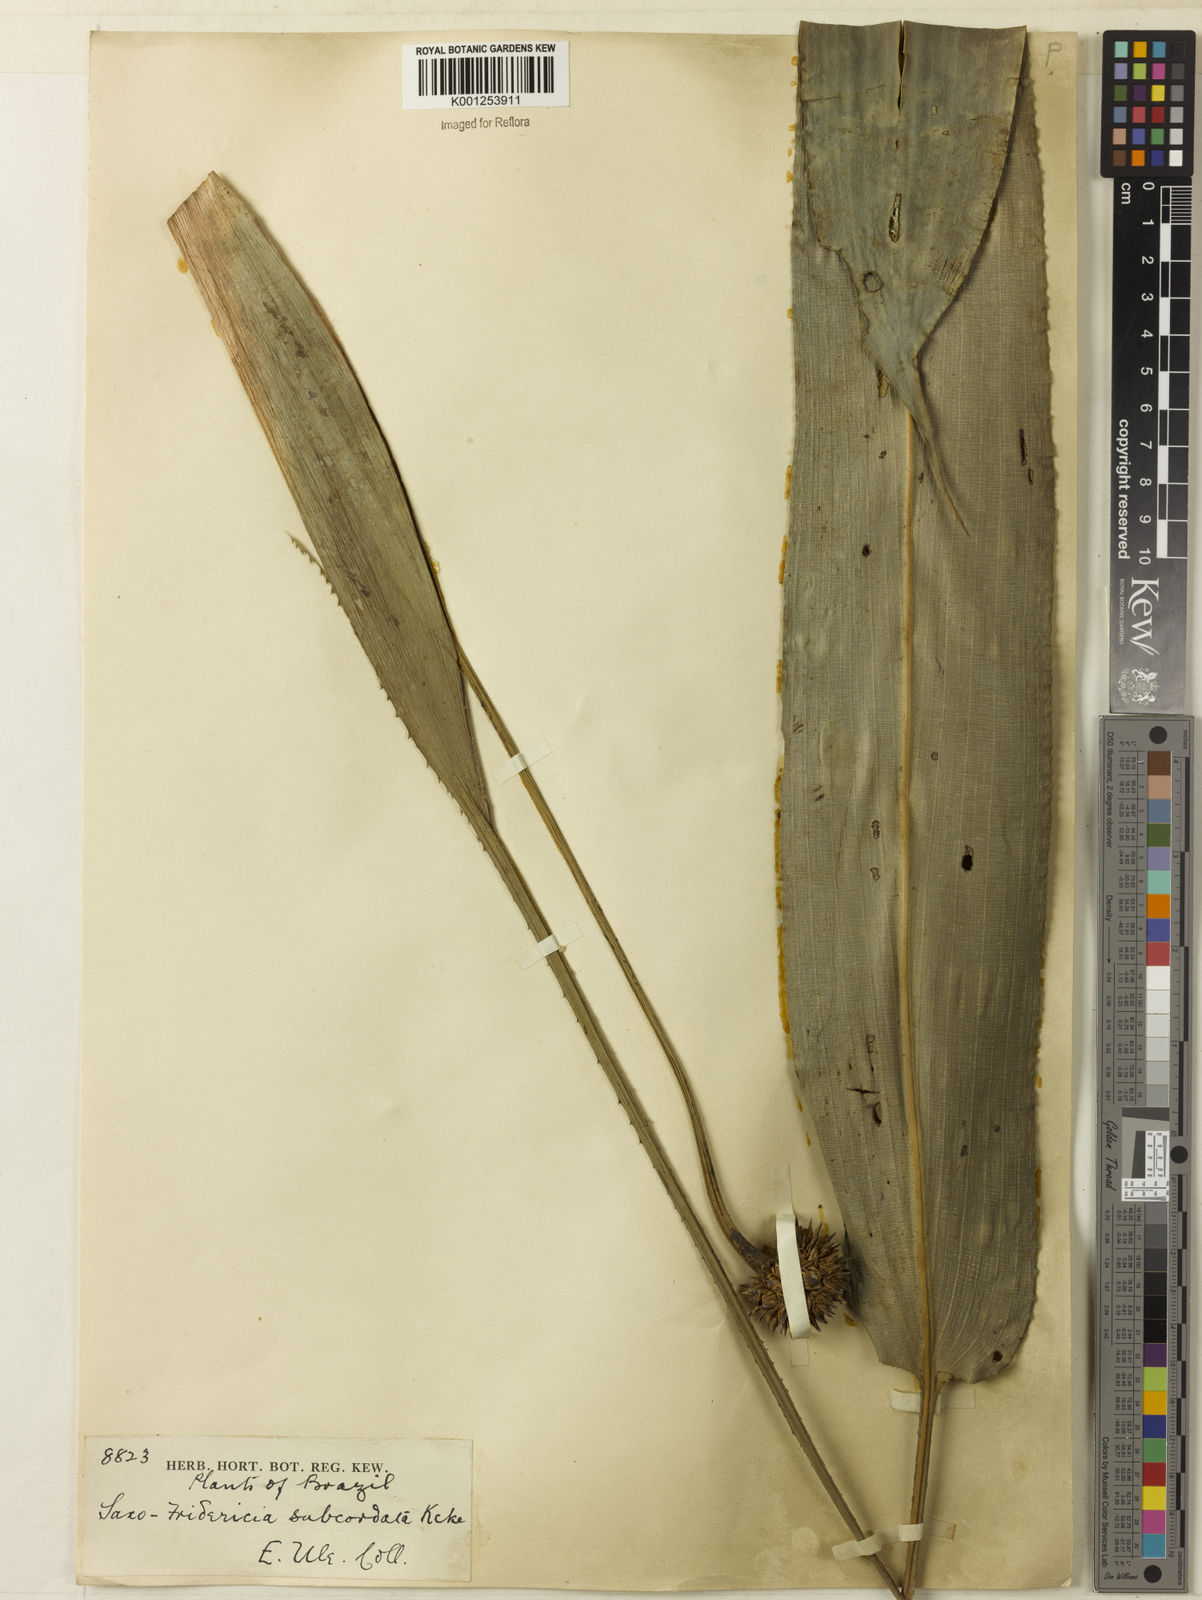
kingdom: Plantae
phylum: Tracheophyta
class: Liliopsida
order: Poales
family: Rapateaceae
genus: Saxofridericia
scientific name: Saxofridericia aculeata
